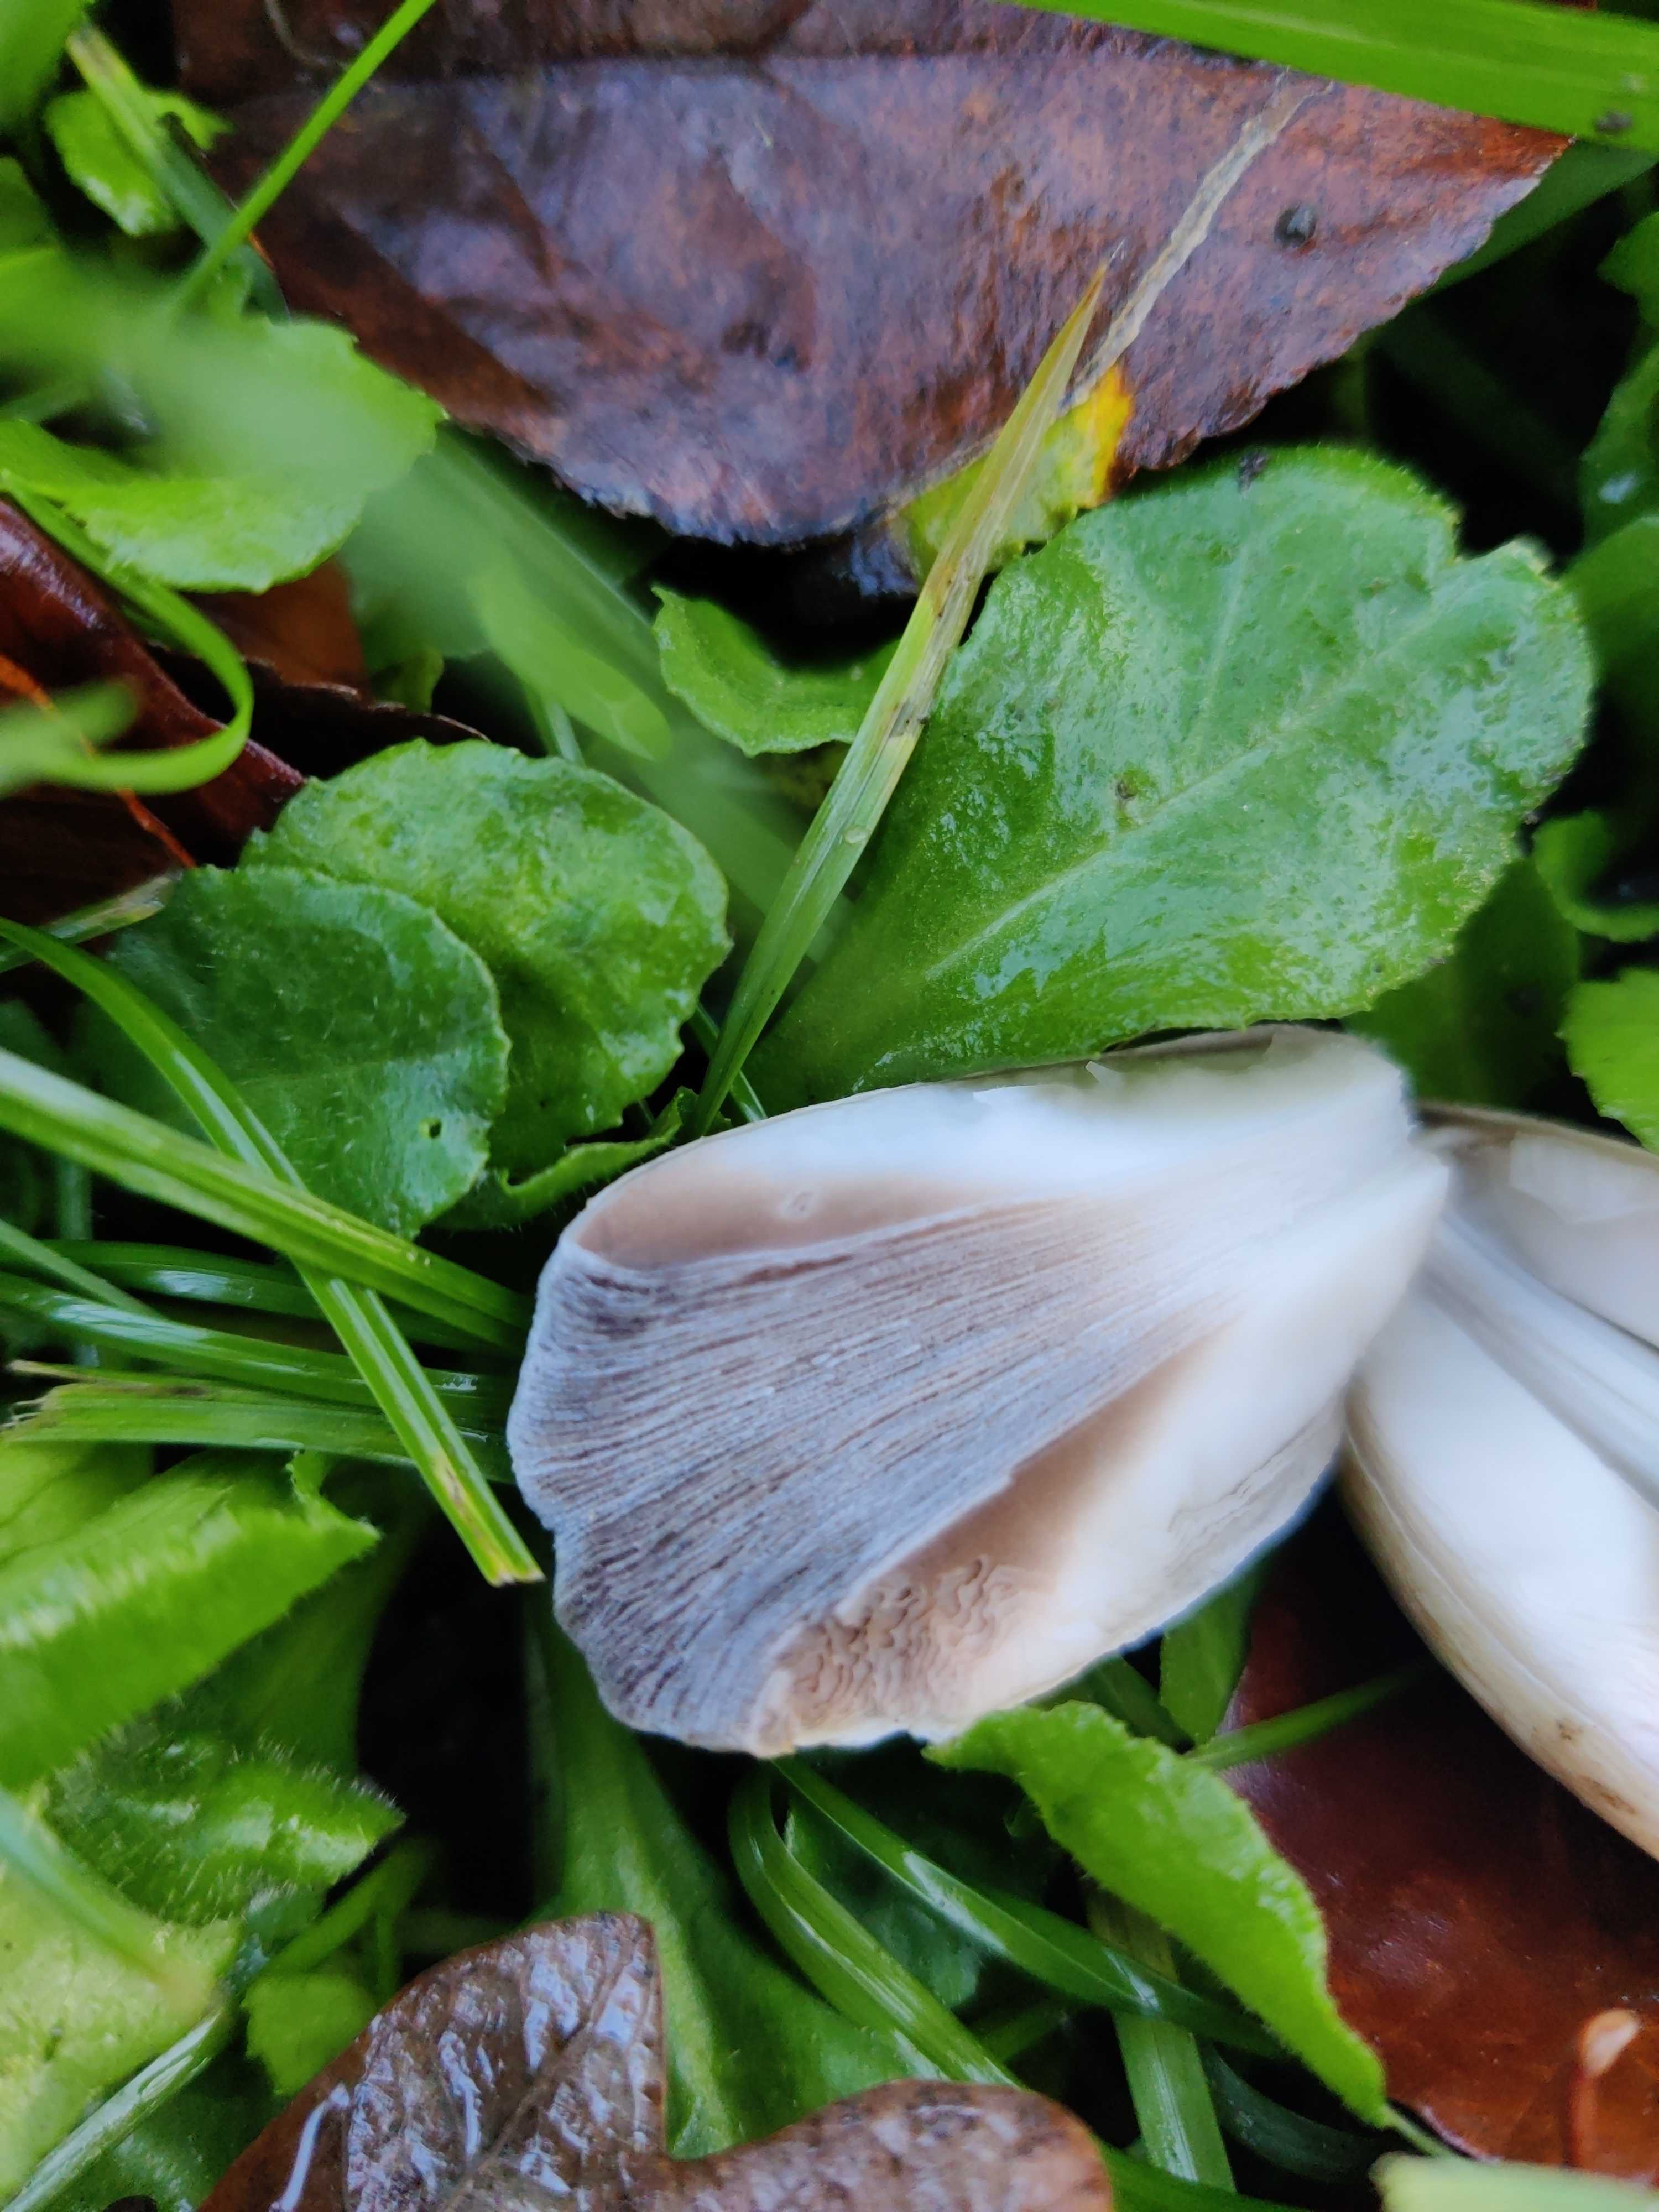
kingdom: Fungi
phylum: Basidiomycota
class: Agaricomycetes
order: Agaricales
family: Psathyrellaceae
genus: Coprinopsis
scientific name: Coprinopsis atramentaria
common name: almindelig blækhat
